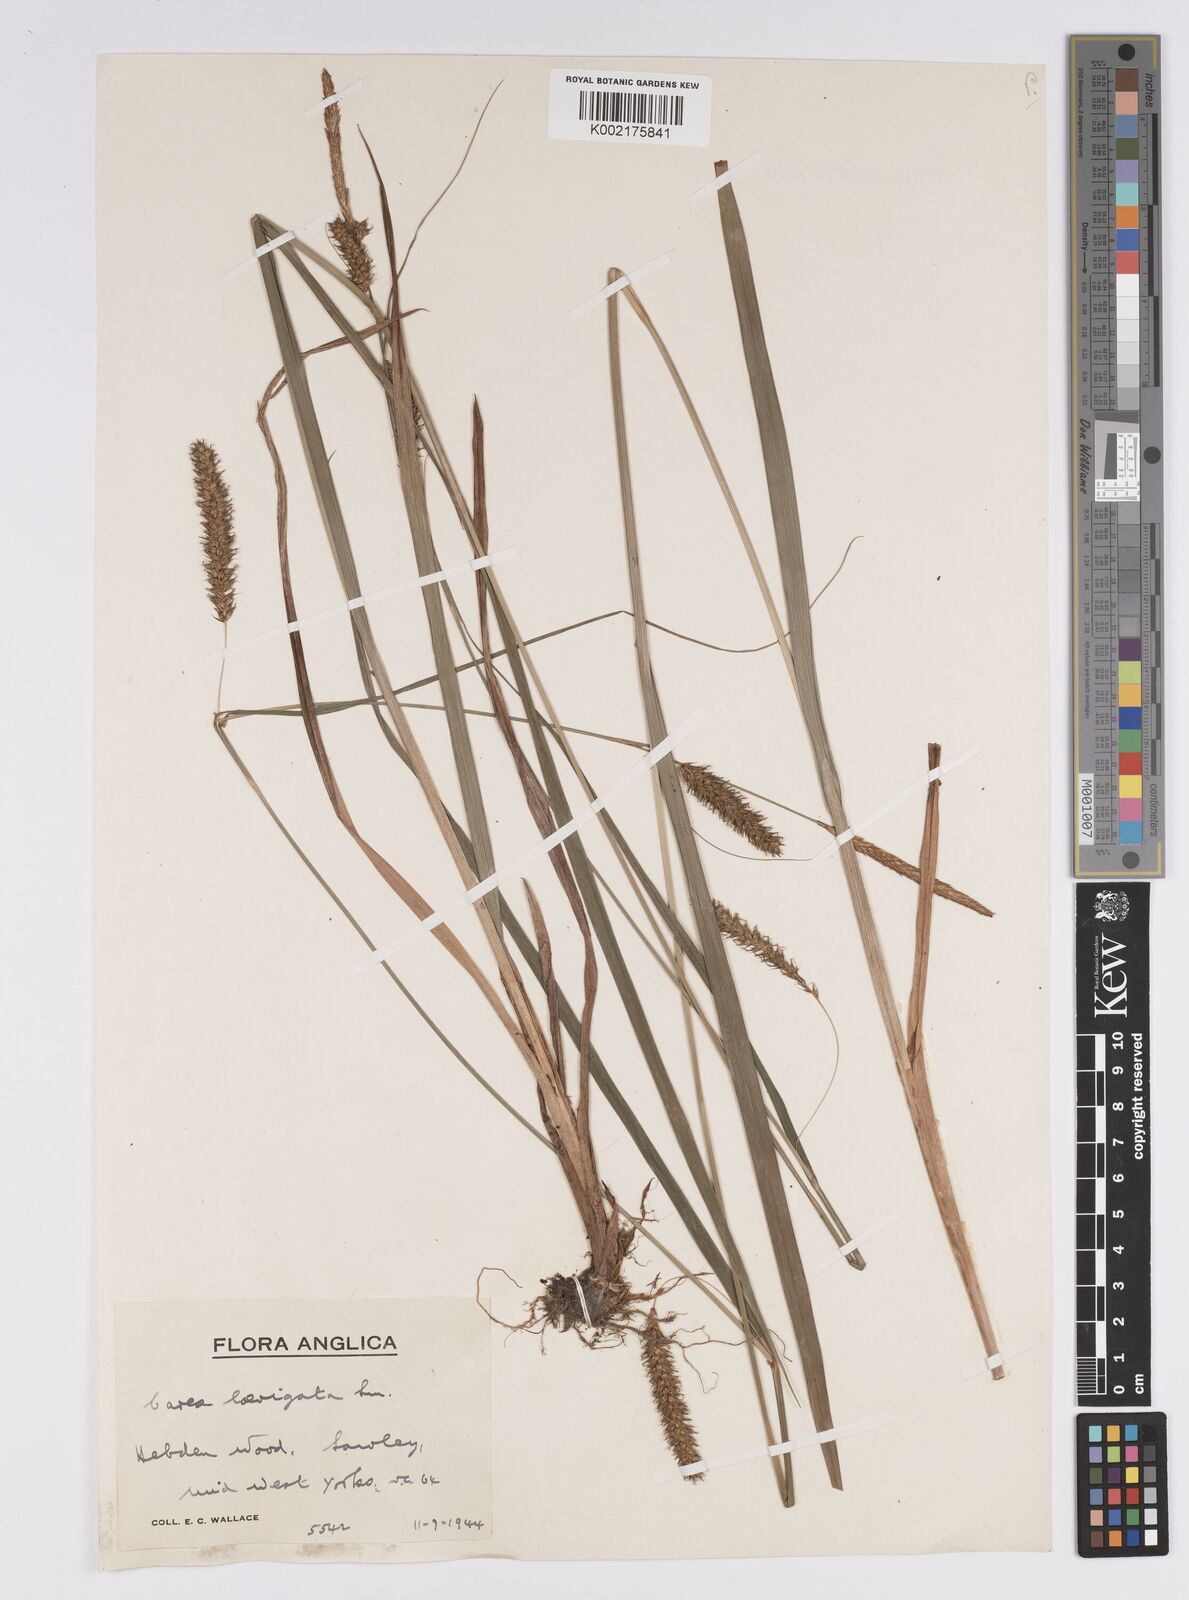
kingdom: Plantae
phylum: Tracheophyta
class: Liliopsida
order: Poales
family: Cyperaceae
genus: Carex
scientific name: Carex laevigata
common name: Smooth-stalked sedge
